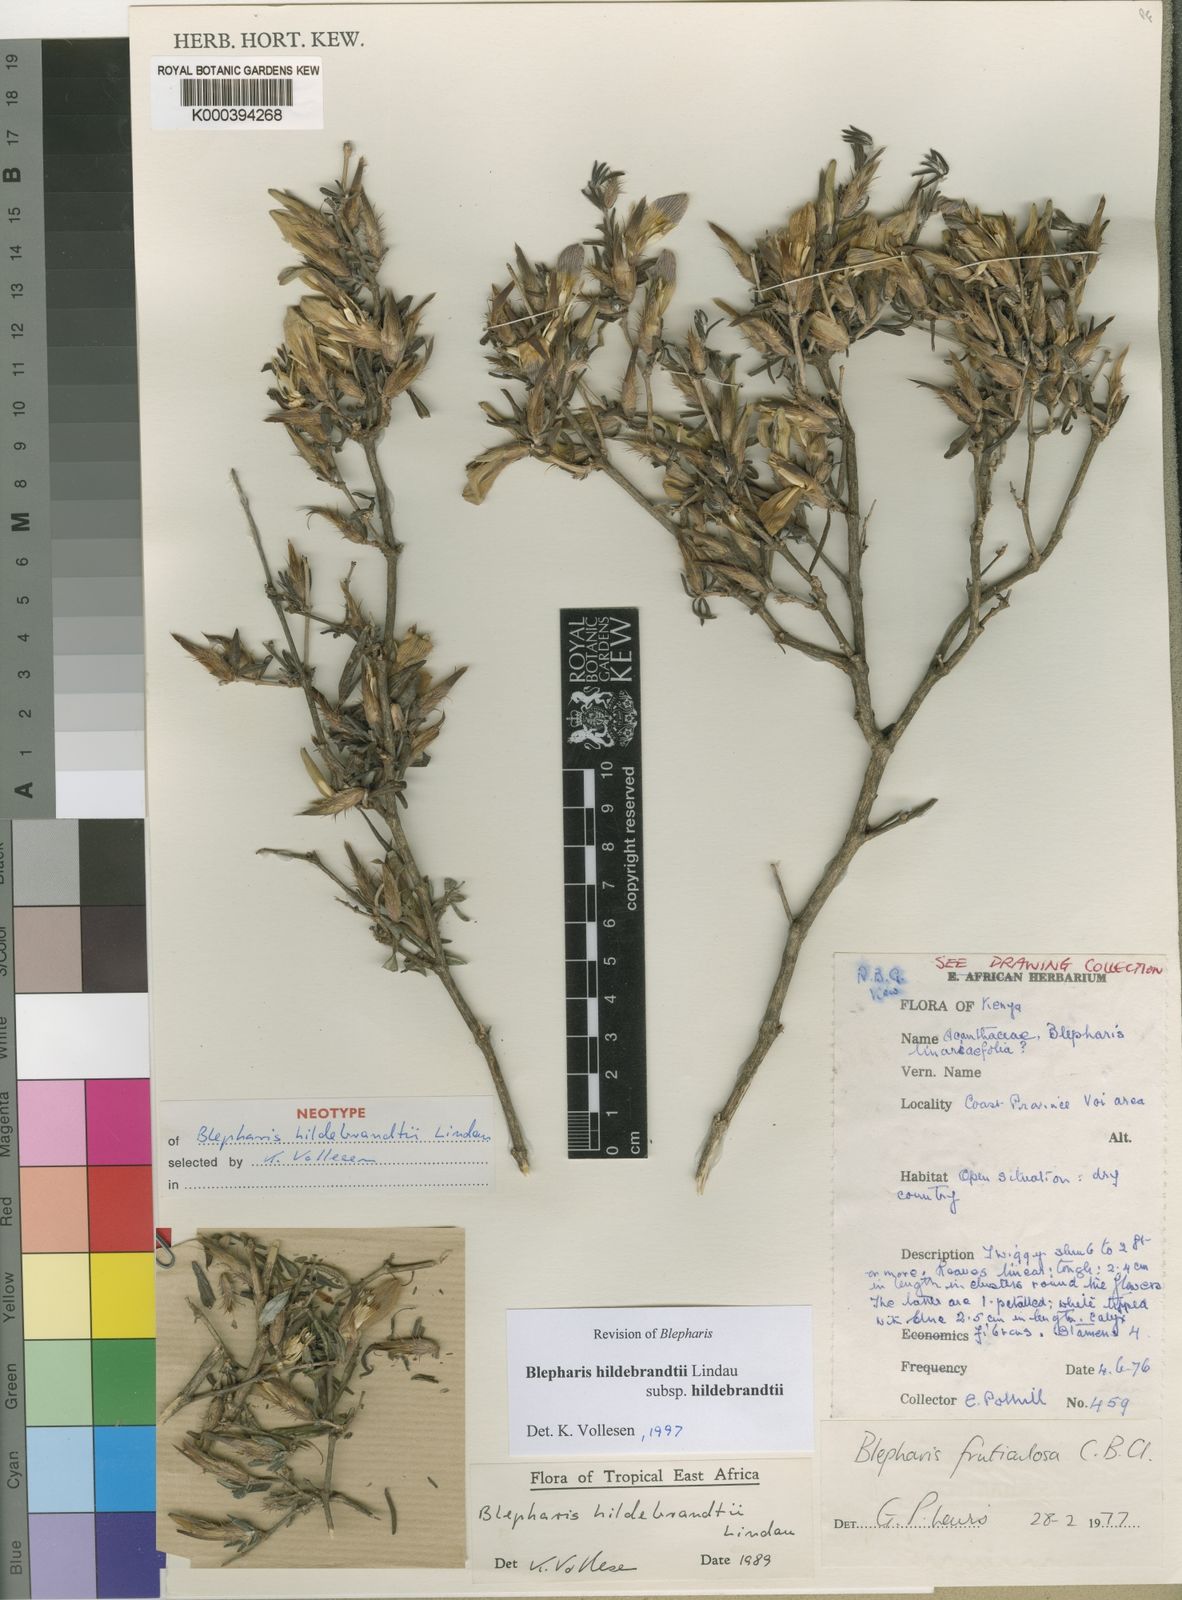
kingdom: Plantae
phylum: Tracheophyta
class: Magnoliopsida
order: Lamiales
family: Acanthaceae
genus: Blepharis
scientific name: Blepharis hildebrandtii
